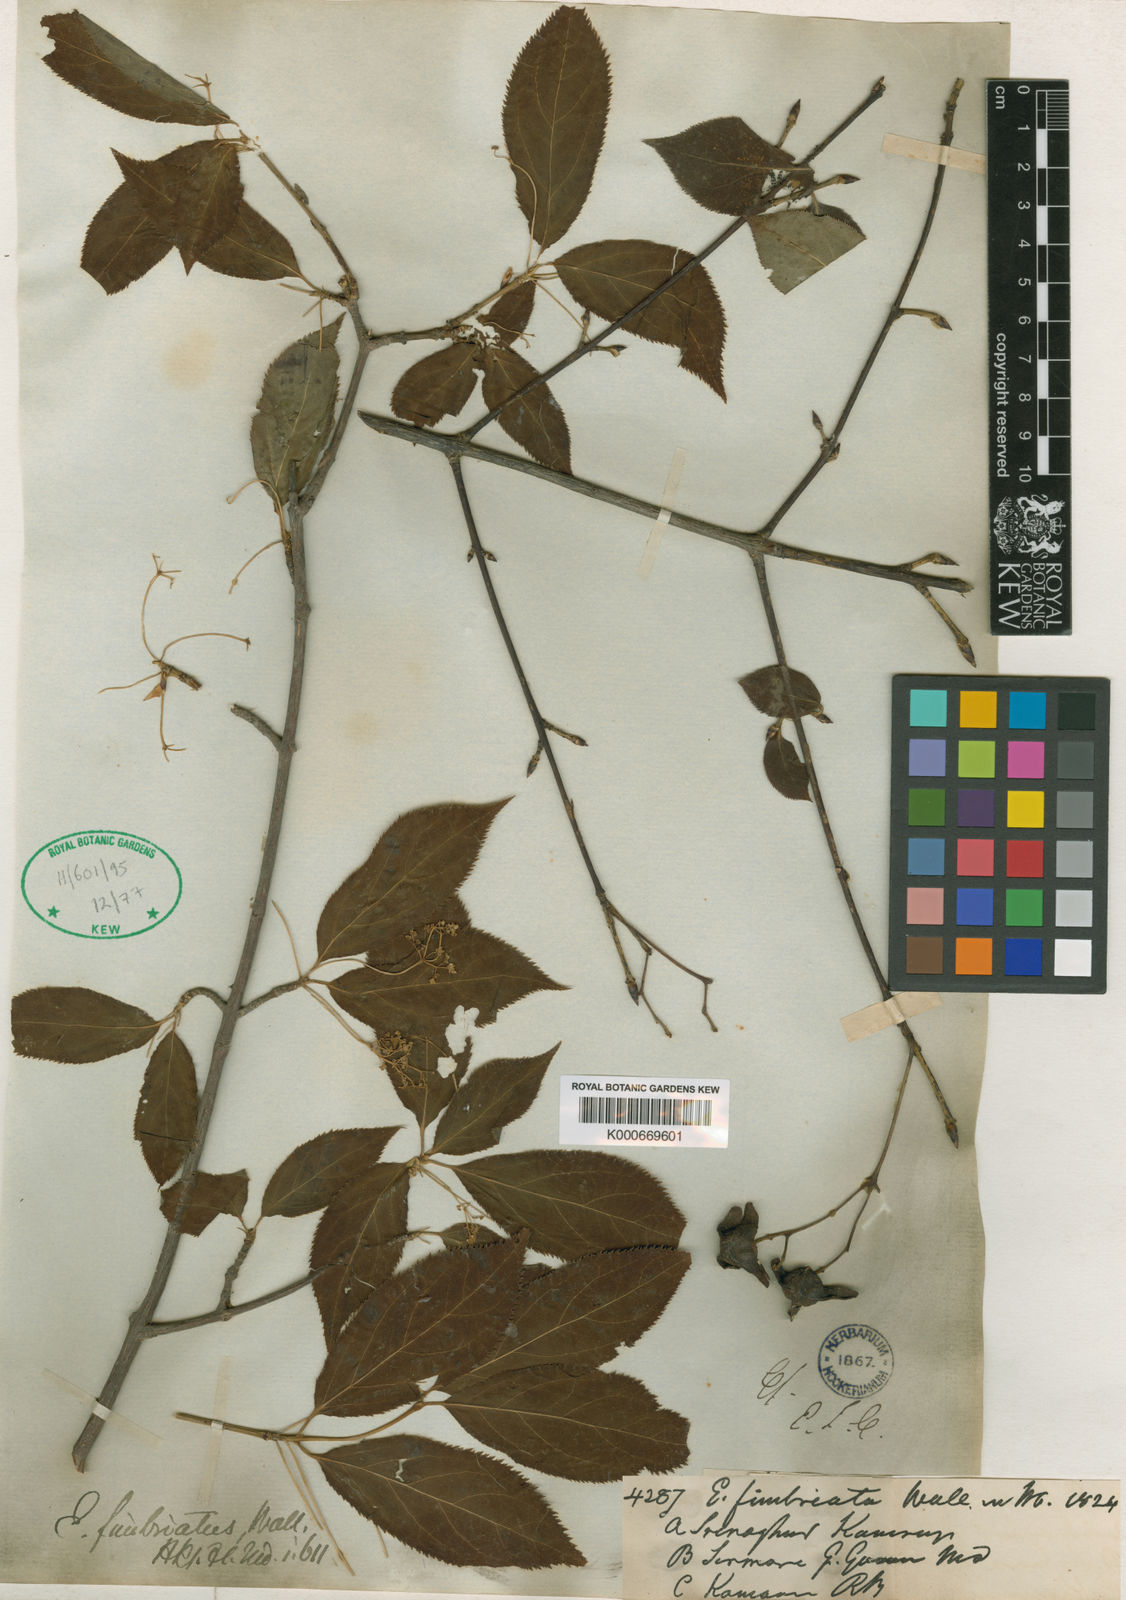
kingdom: Plantae
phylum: Tracheophyta
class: Magnoliopsida
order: Celastrales
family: Celastraceae
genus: Euonymus
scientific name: Euonymus fimbriatus
